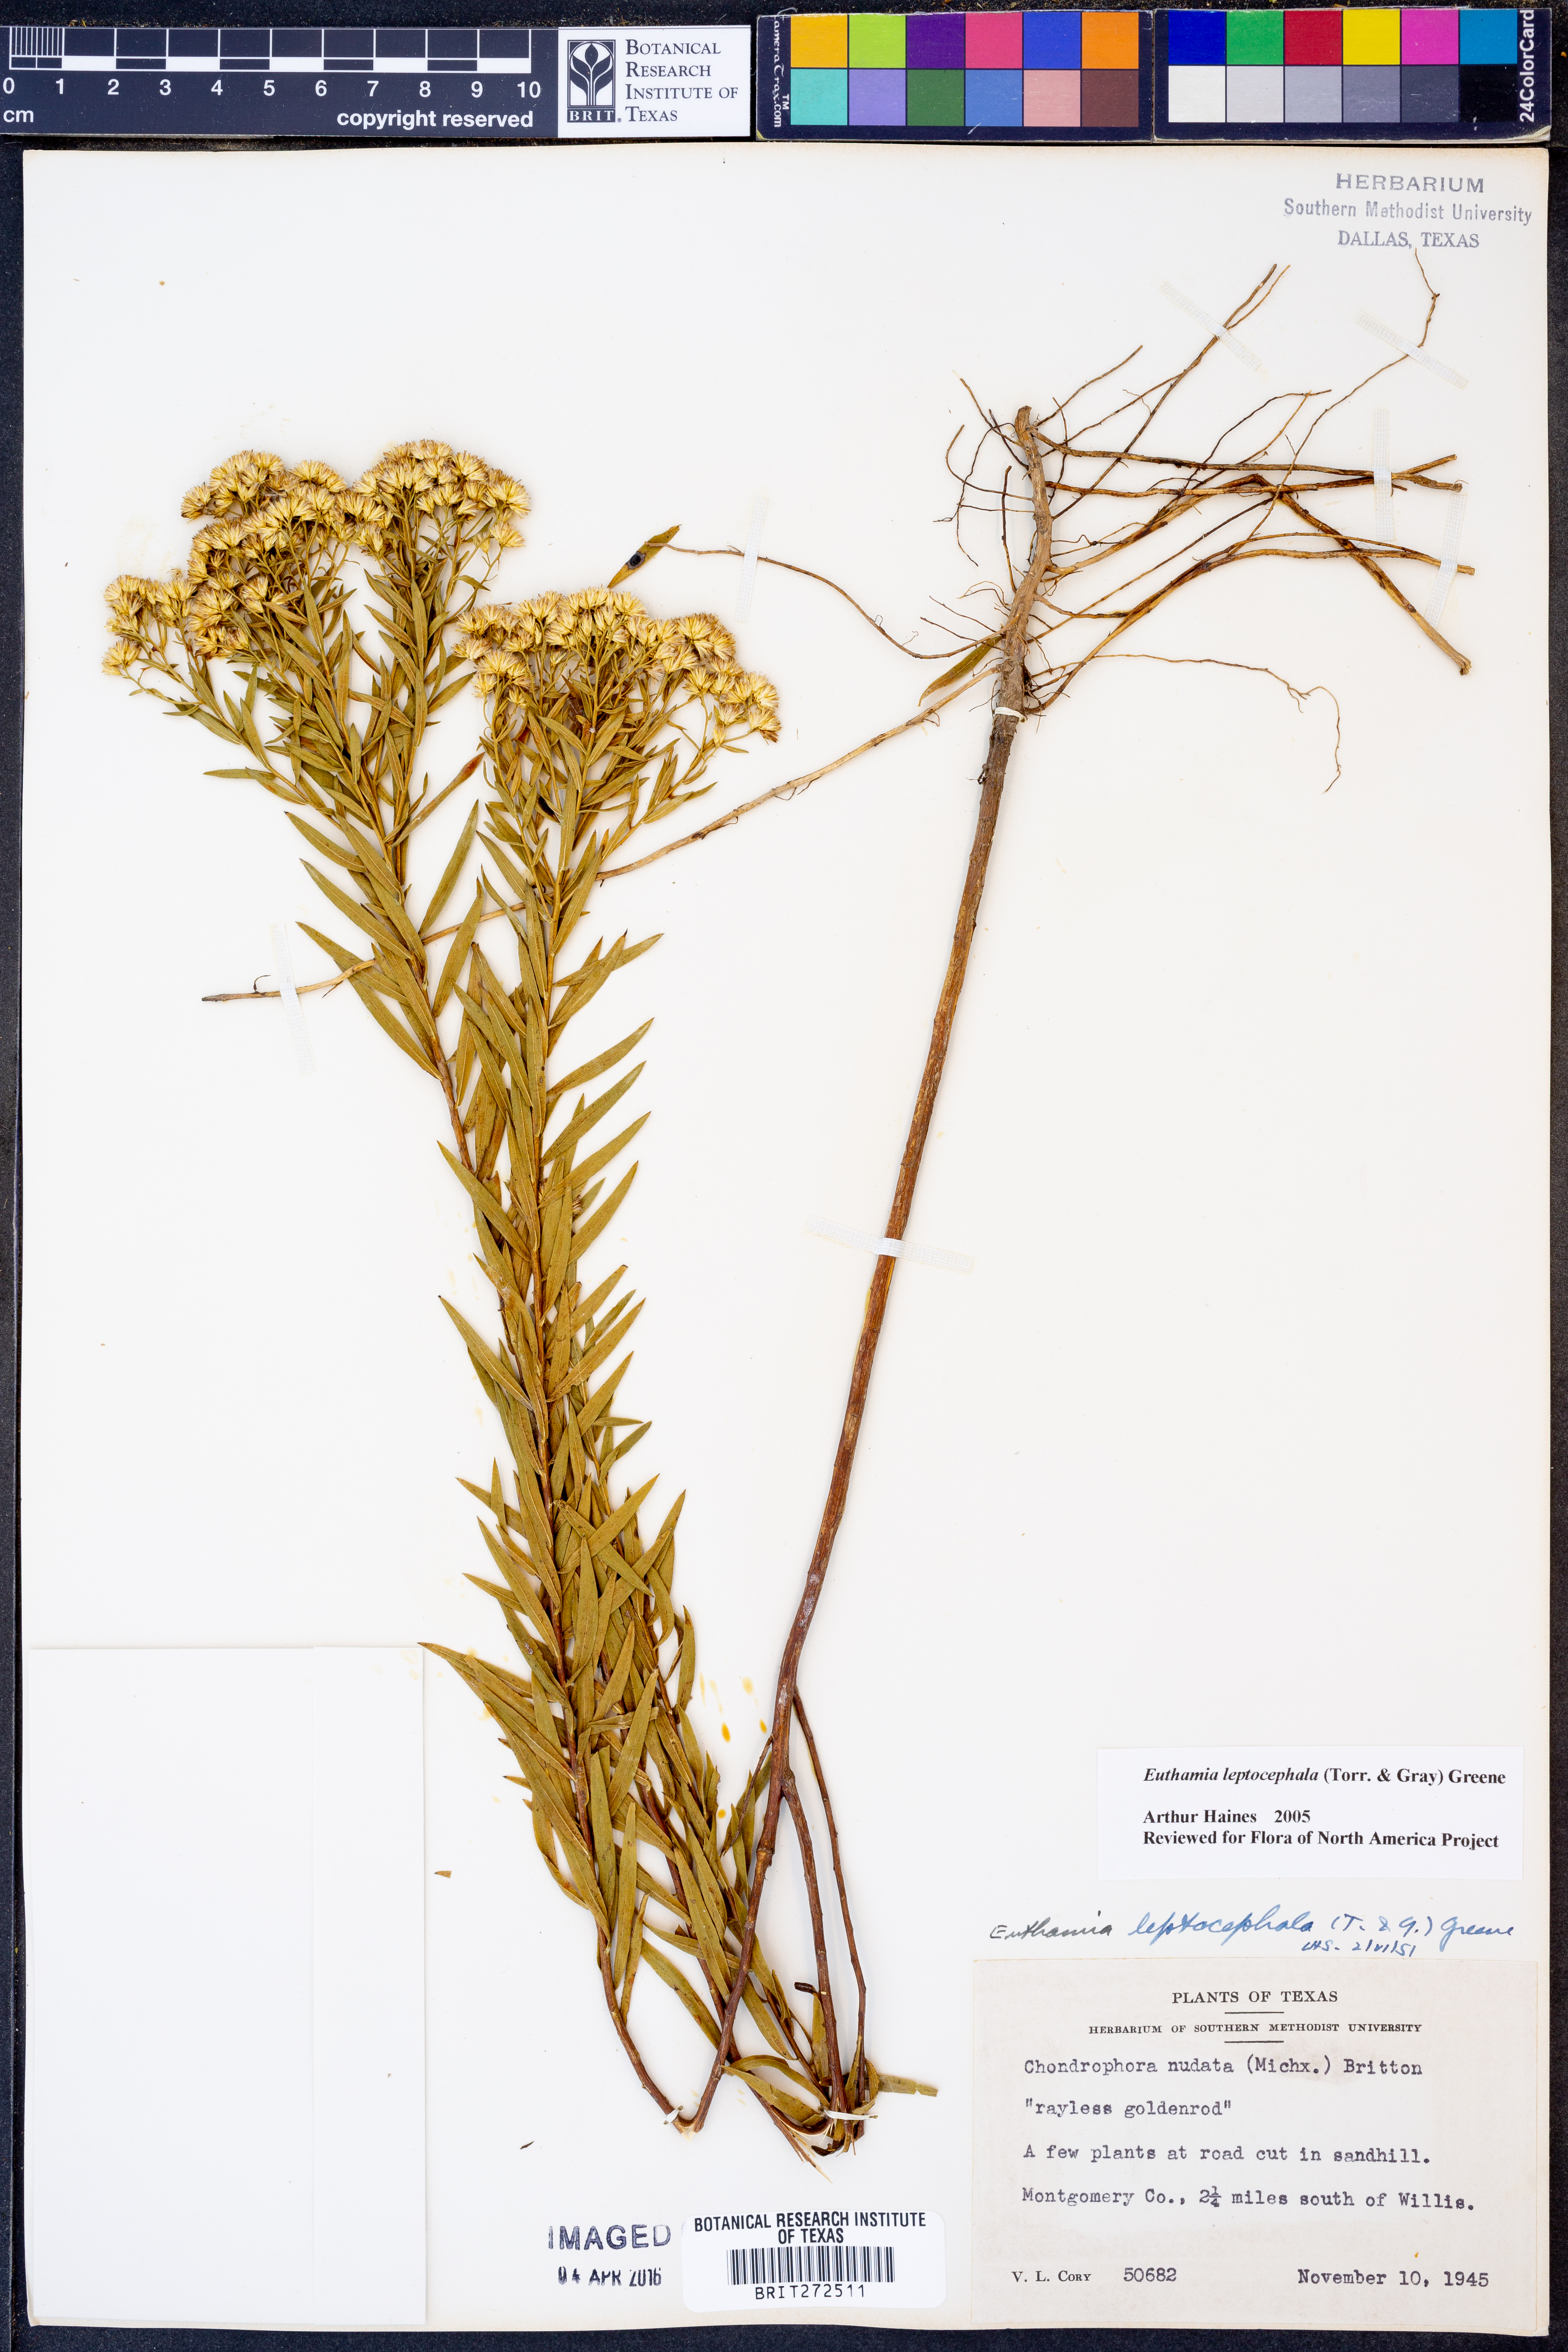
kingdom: Plantae
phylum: Tracheophyta
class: Magnoliopsida
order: Asterales
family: Asteraceae
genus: Euthamia
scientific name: Euthamia leptocephala
